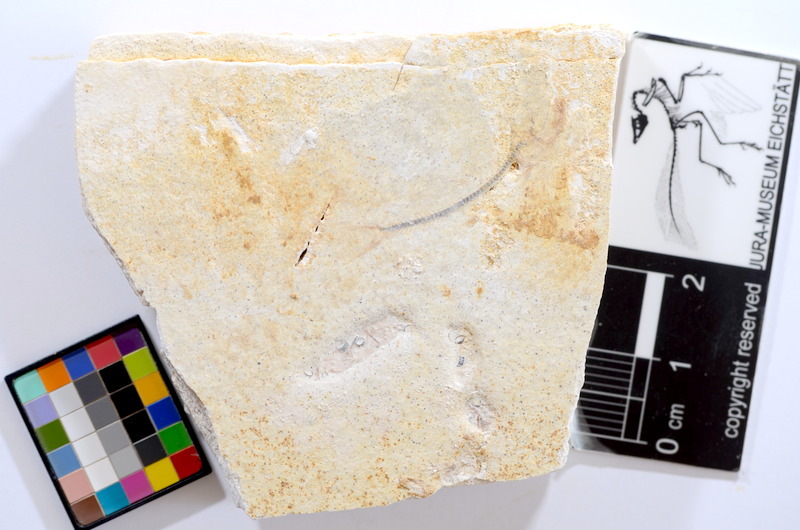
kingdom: Animalia
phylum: Chordata
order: Salmoniformes
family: Orthogonikleithridae
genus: Orthogonikleithrus
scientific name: Orthogonikleithrus hoelli
